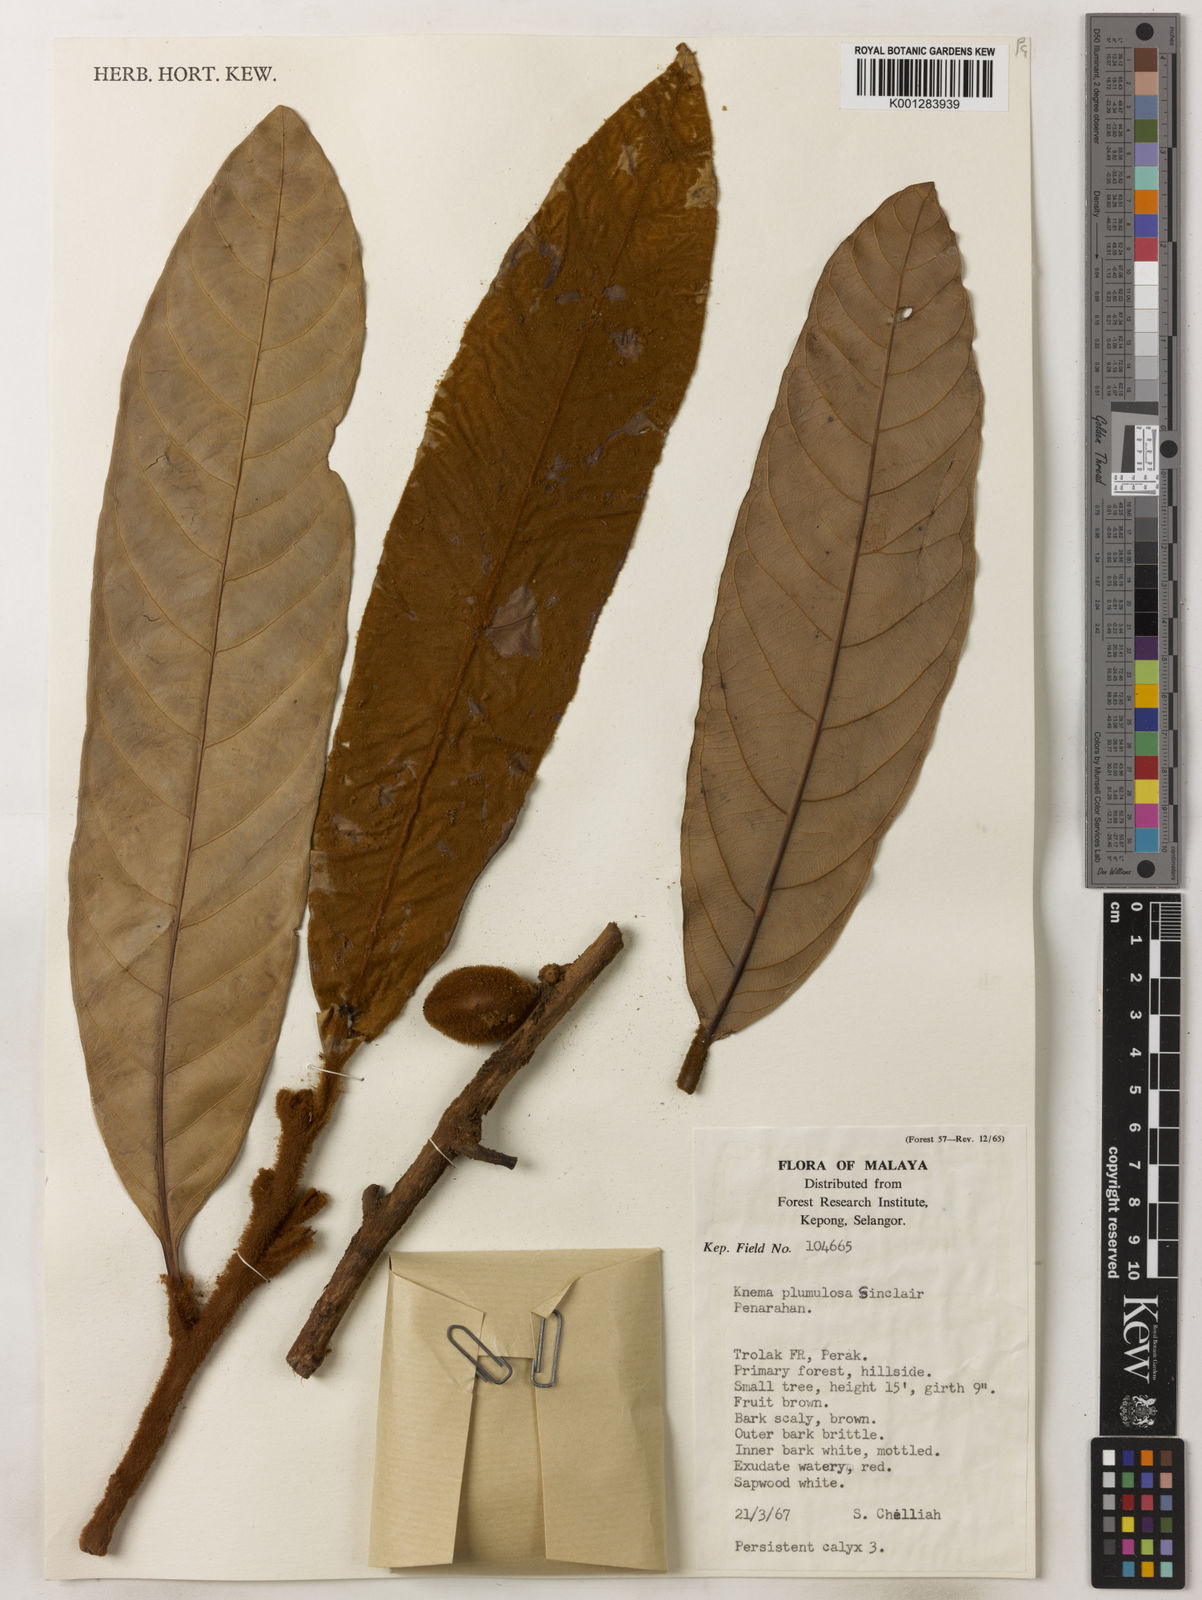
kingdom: Plantae
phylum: Tracheophyta
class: Magnoliopsida
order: Magnoliales
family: Myristicaceae
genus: Knema
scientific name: Knema plumulosa
